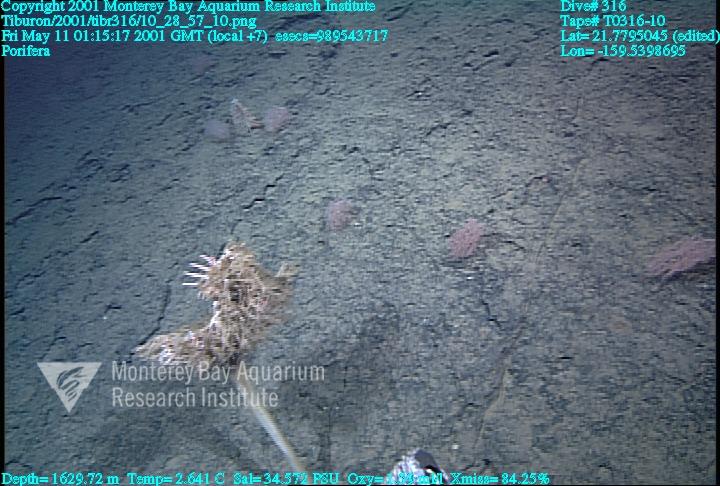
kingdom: Animalia
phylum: Porifera
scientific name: Porifera
